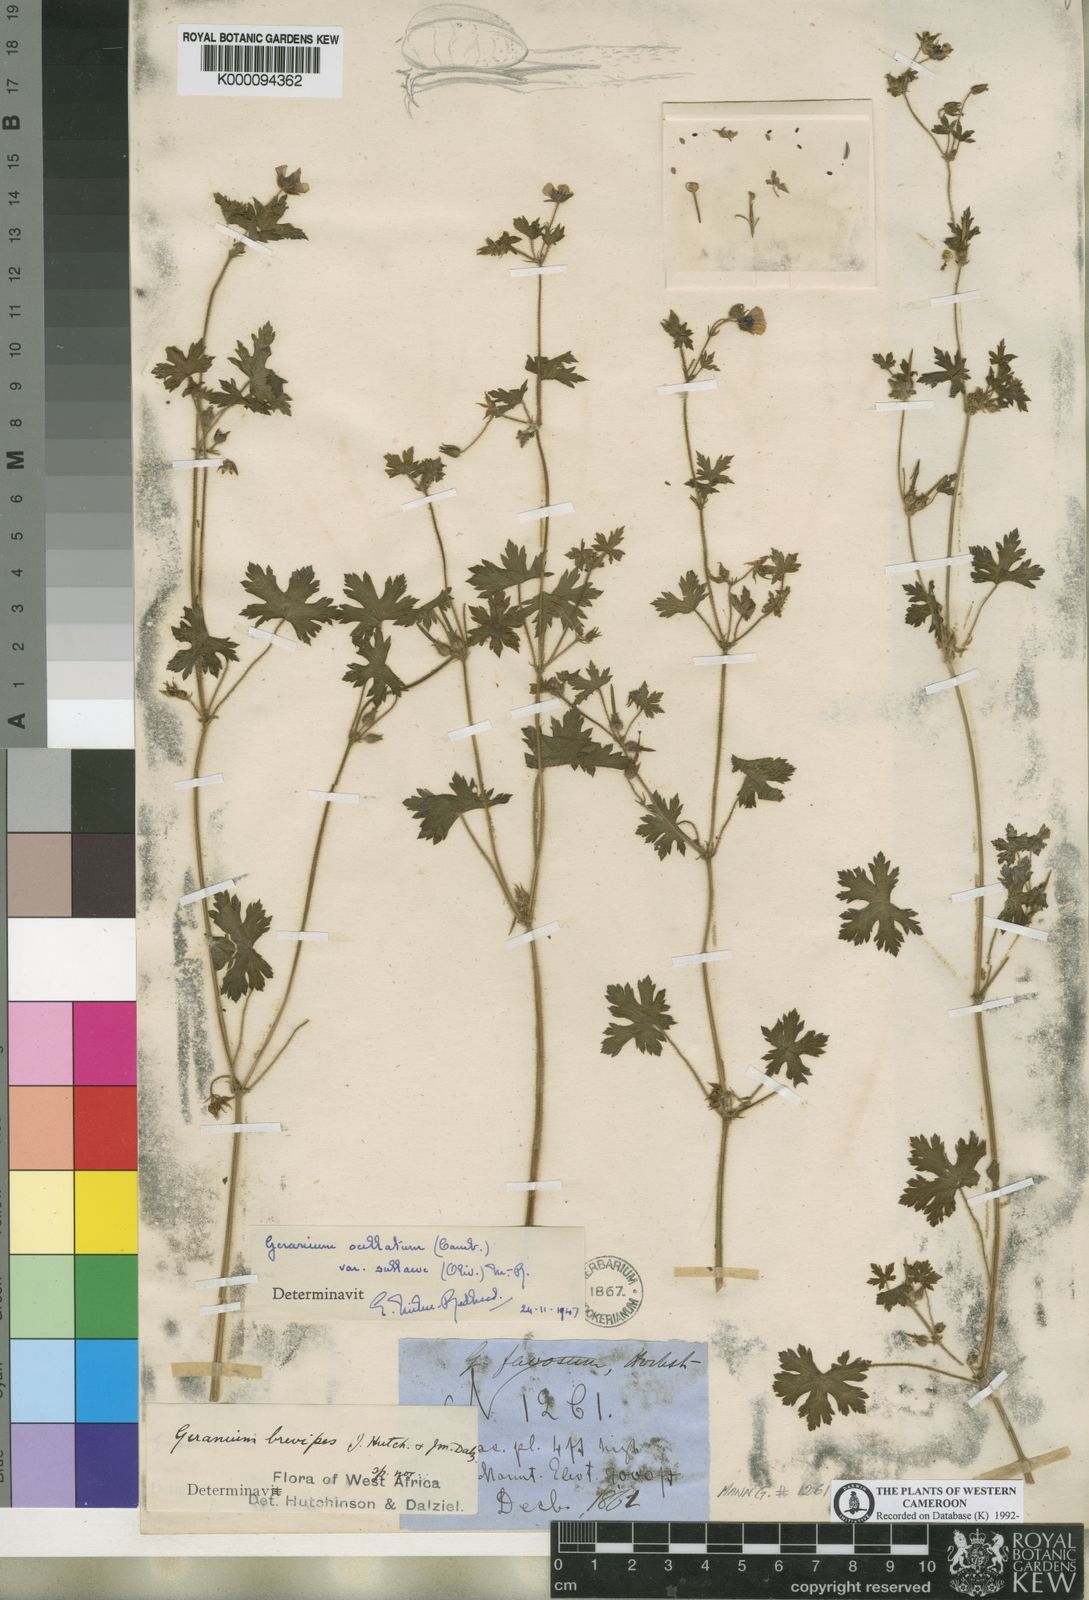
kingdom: Plantae
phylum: Tracheophyta
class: Magnoliopsida
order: Geraniales
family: Geraniaceae
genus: Geranium
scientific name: Geranium ocellatum
